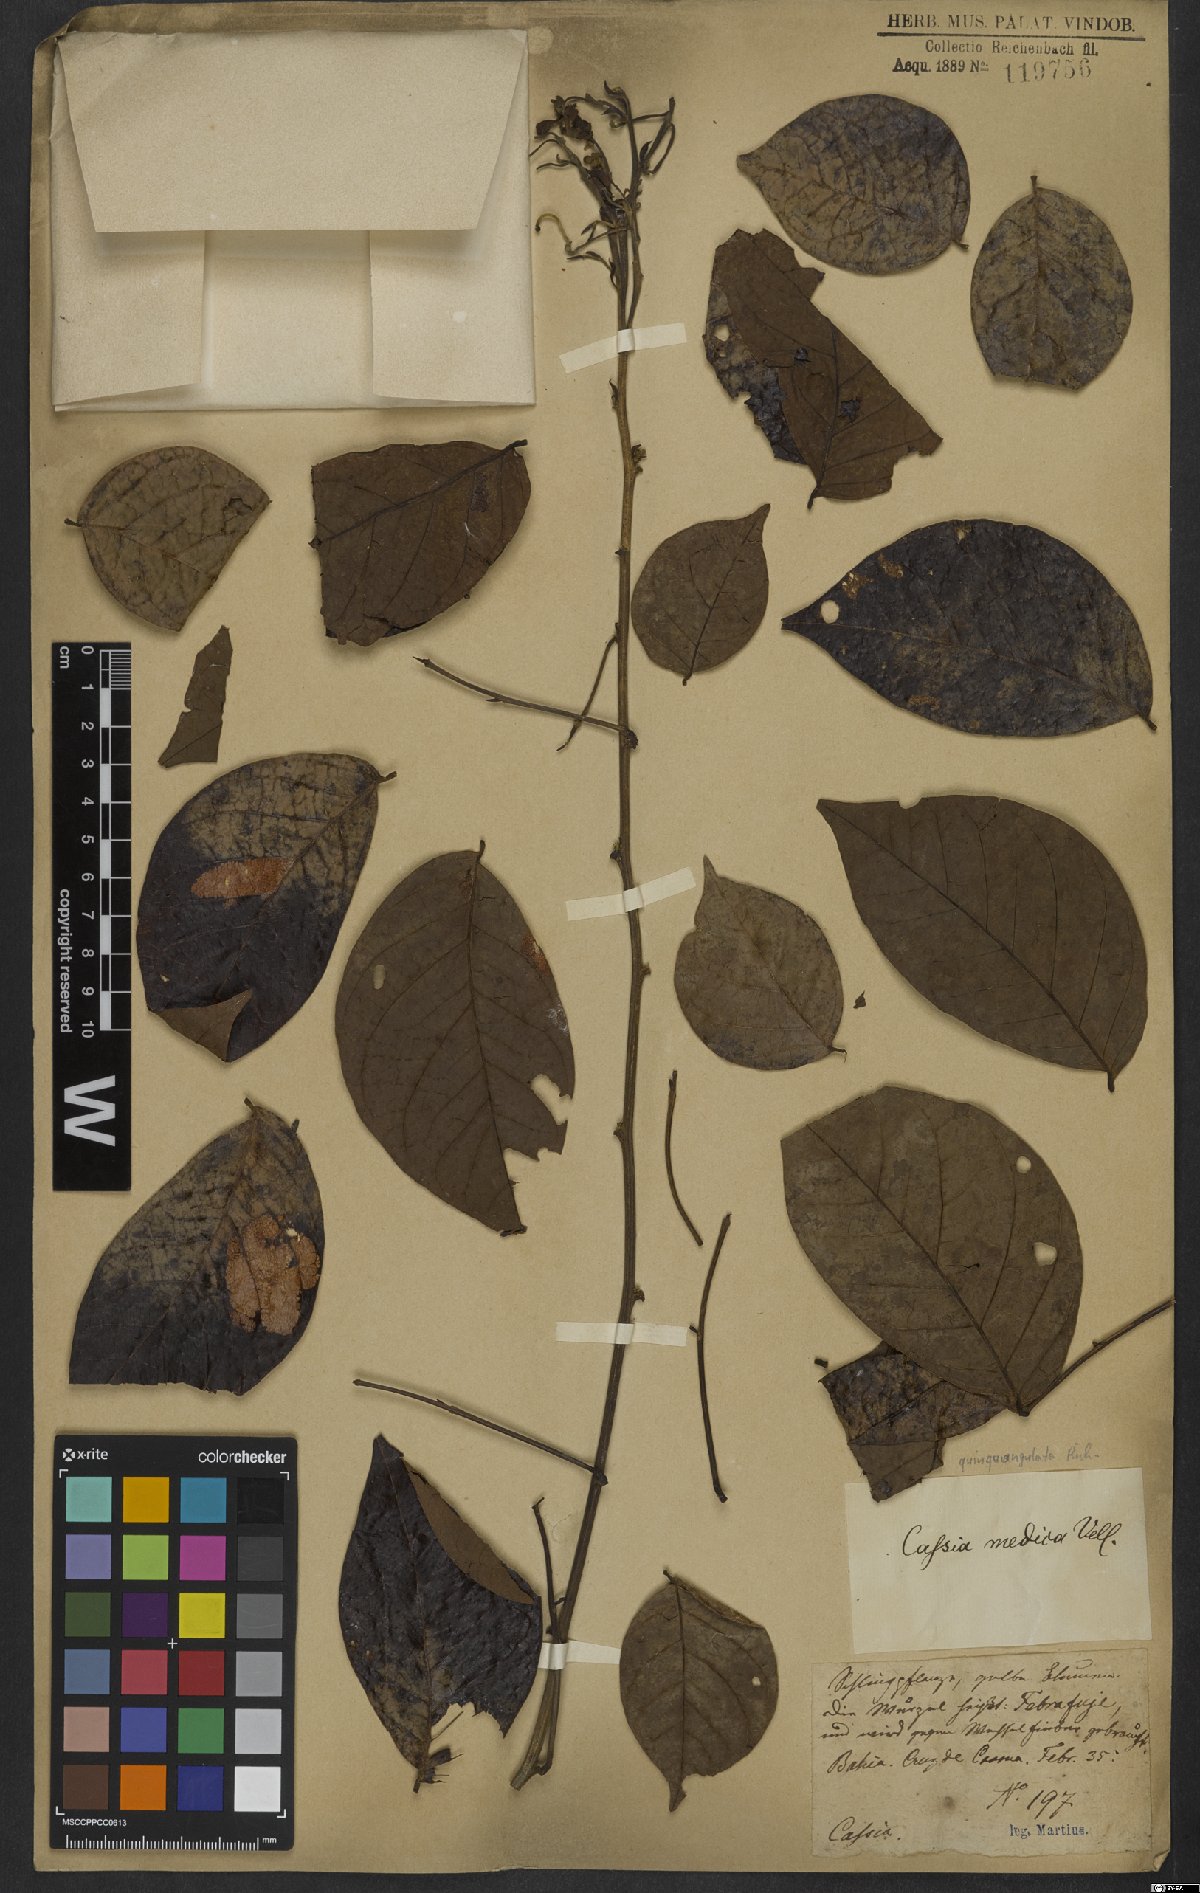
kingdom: Plantae
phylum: Tracheophyta
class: Magnoliopsida
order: Fabales
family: Fabaceae
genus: Senna
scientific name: Senna quinquangulata
